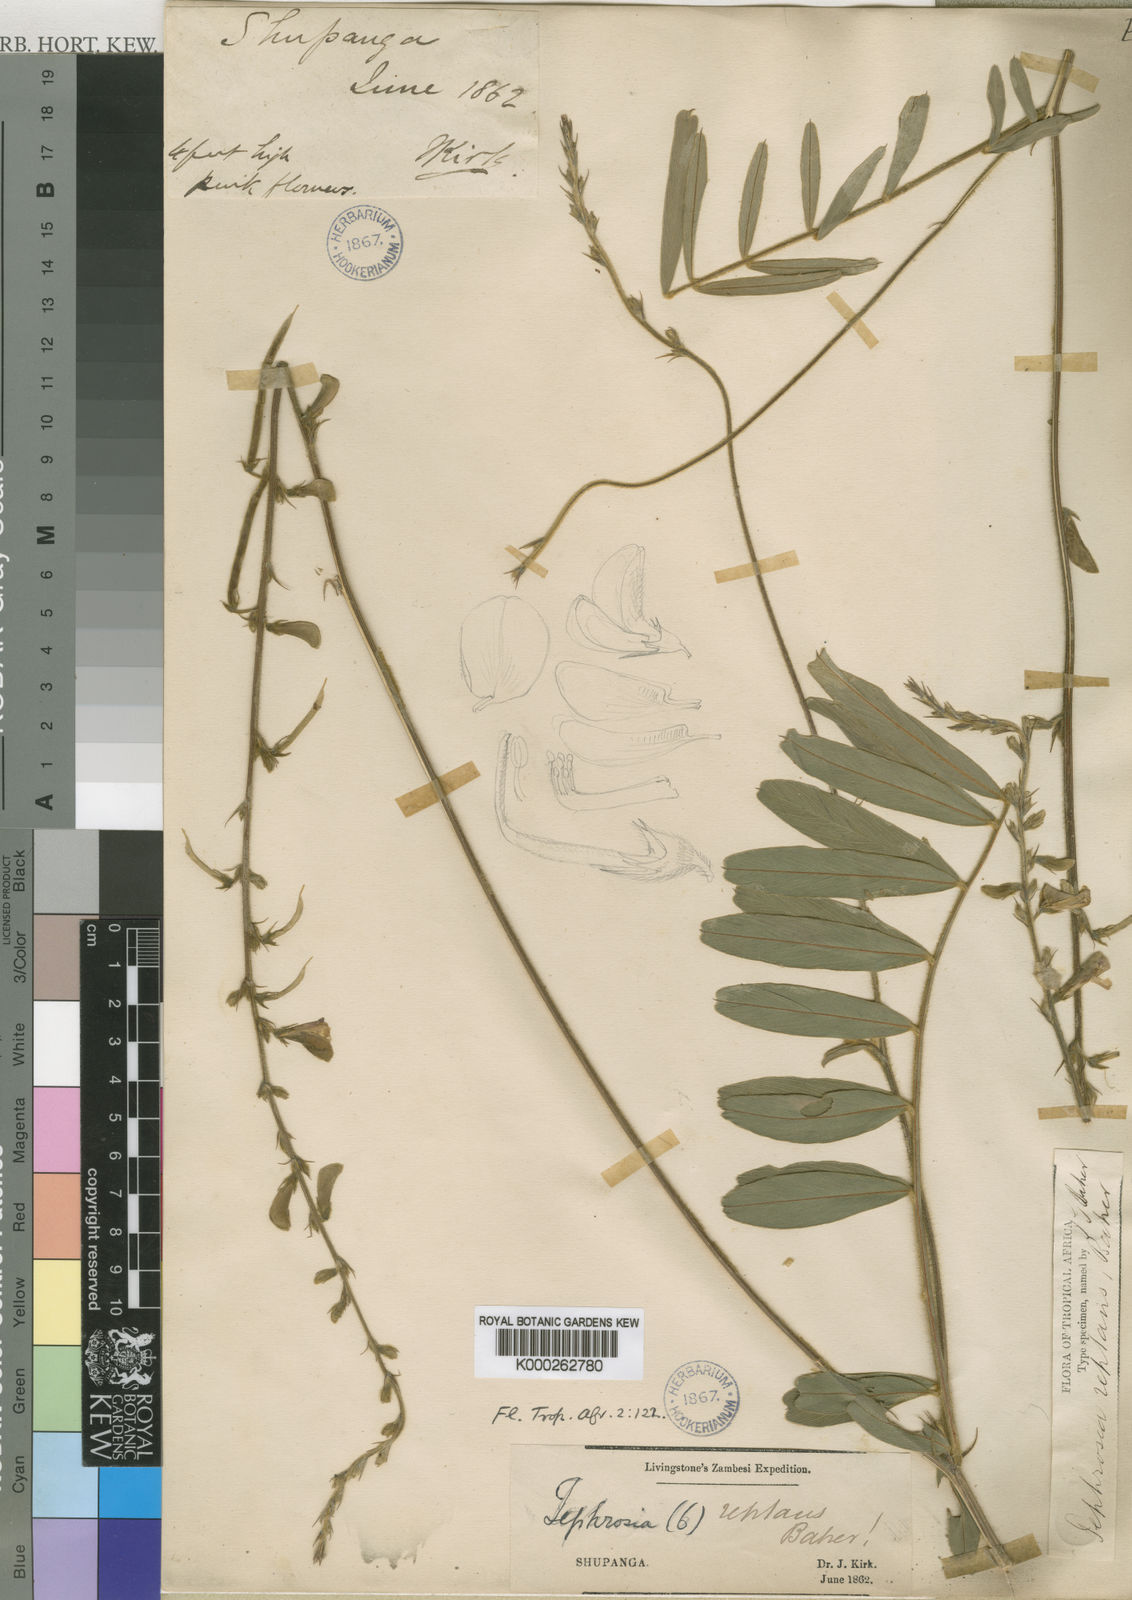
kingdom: Plantae
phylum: Tracheophyta
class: Magnoliopsida
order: Fabales
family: Fabaceae
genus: Tephrosia
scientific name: Tephrosia reptans
